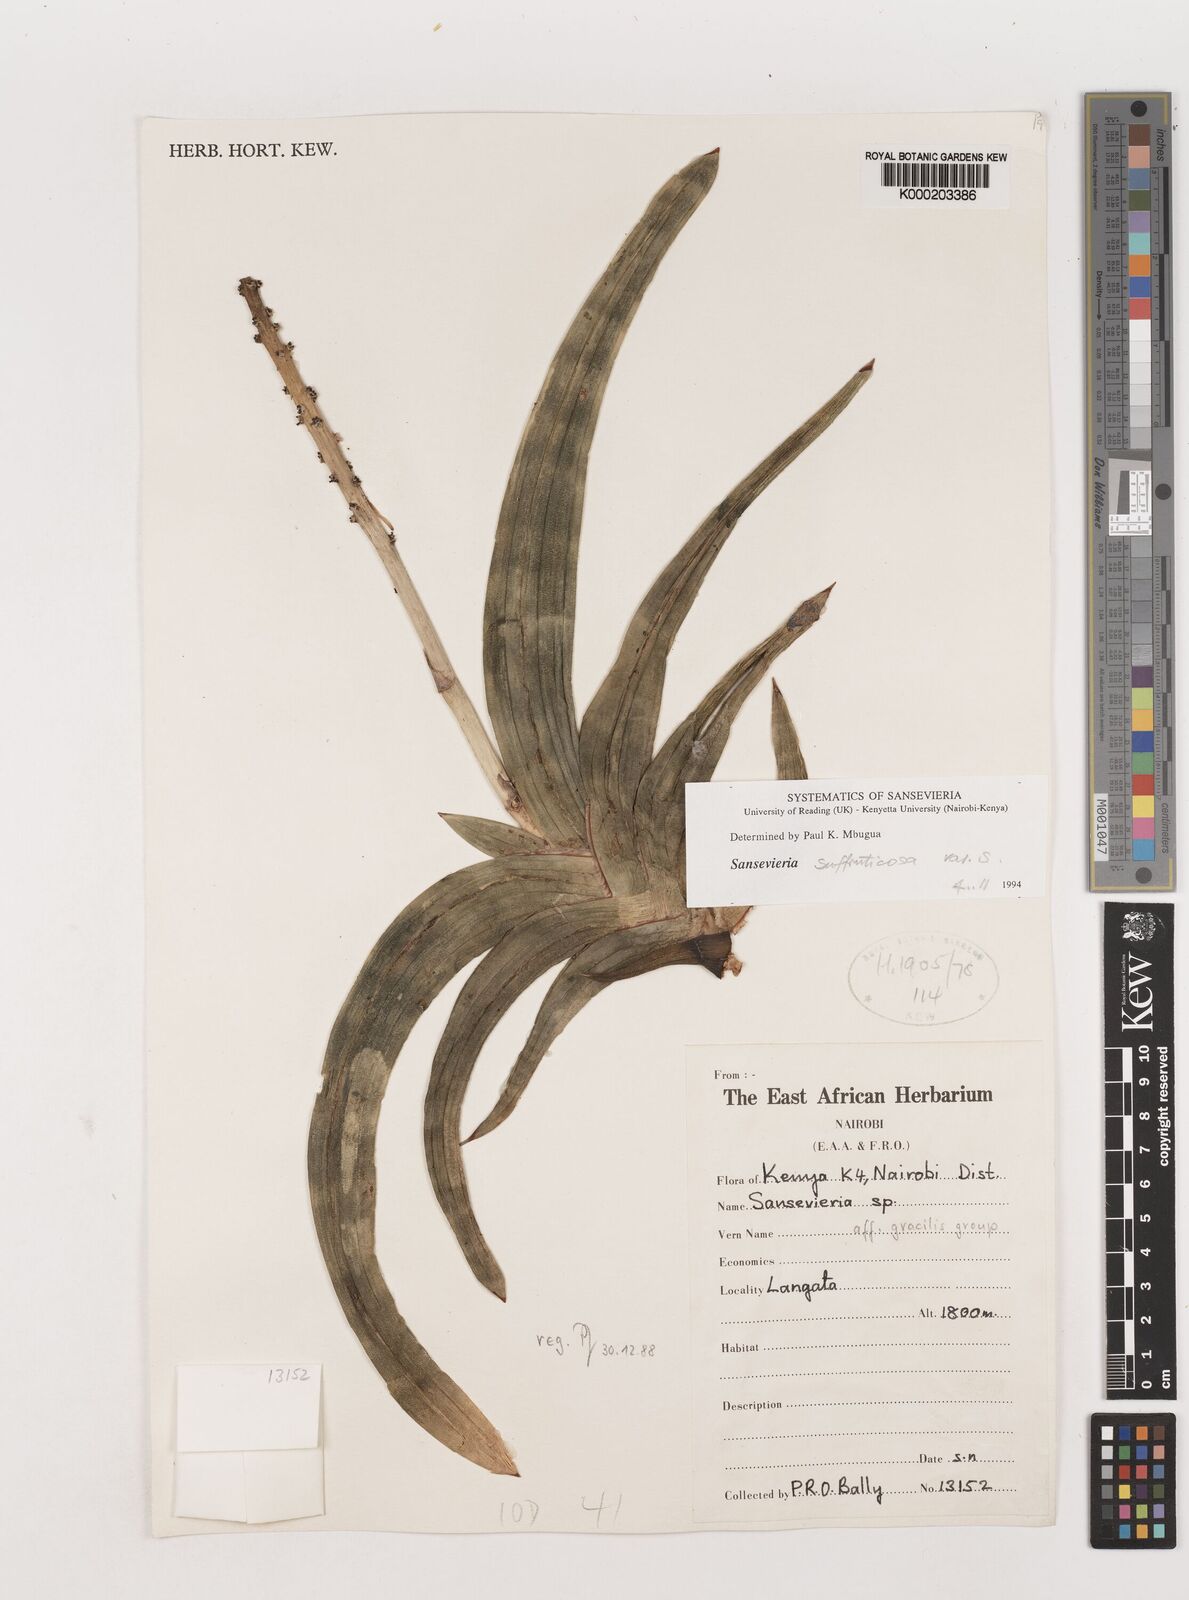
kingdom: Plantae
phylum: Tracheophyta
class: Liliopsida
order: Asparagales
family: Asparagaceae
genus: Dracaena
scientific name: Dracaena serpenta
